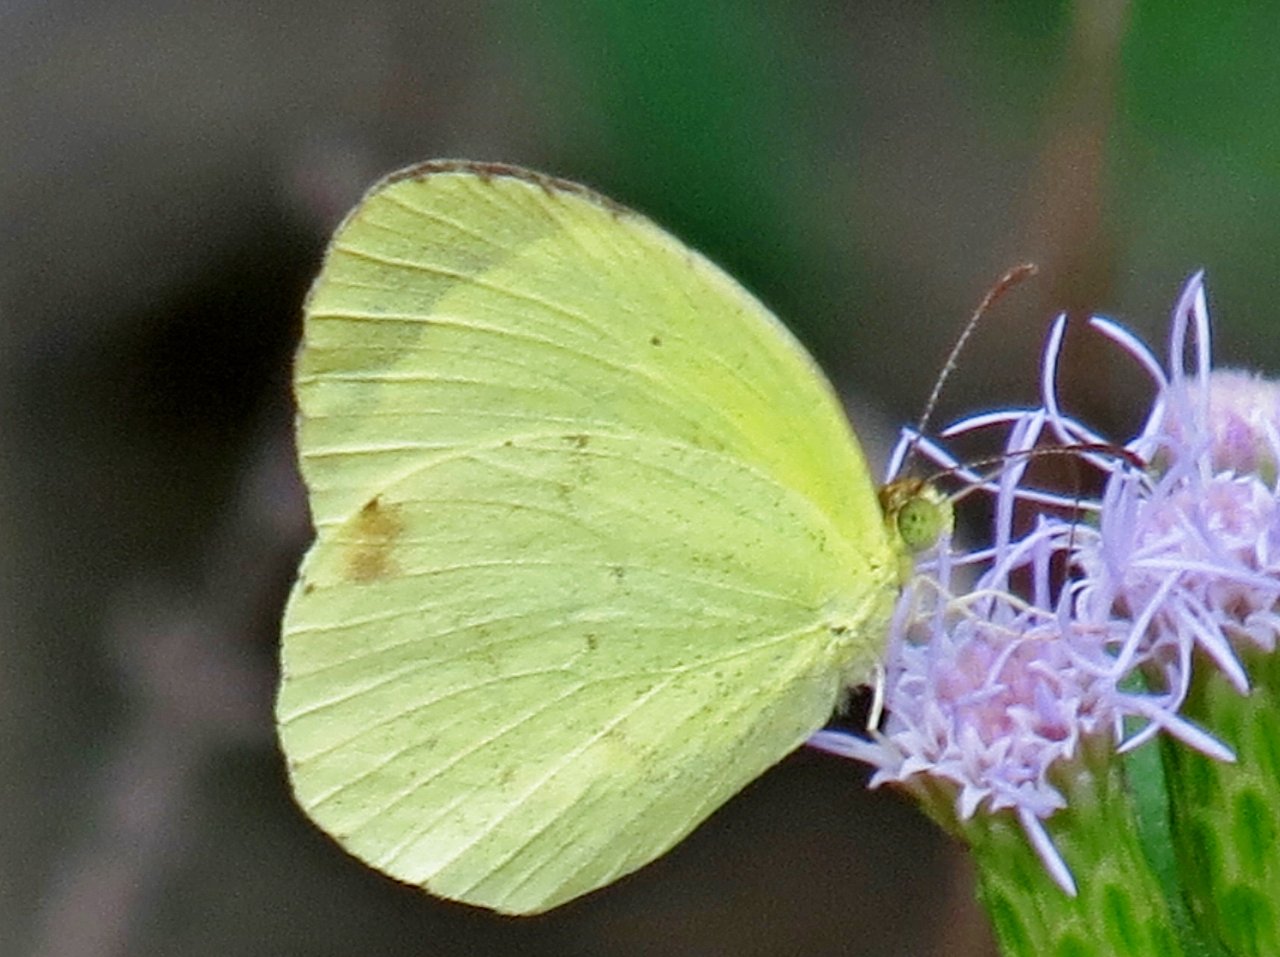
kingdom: Animalia
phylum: Arthropoda
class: Insecta
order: Lepidoptera
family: Pieridae
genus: Pyrisitia
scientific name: Pyrisitia nise
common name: Mimosa Yellow
